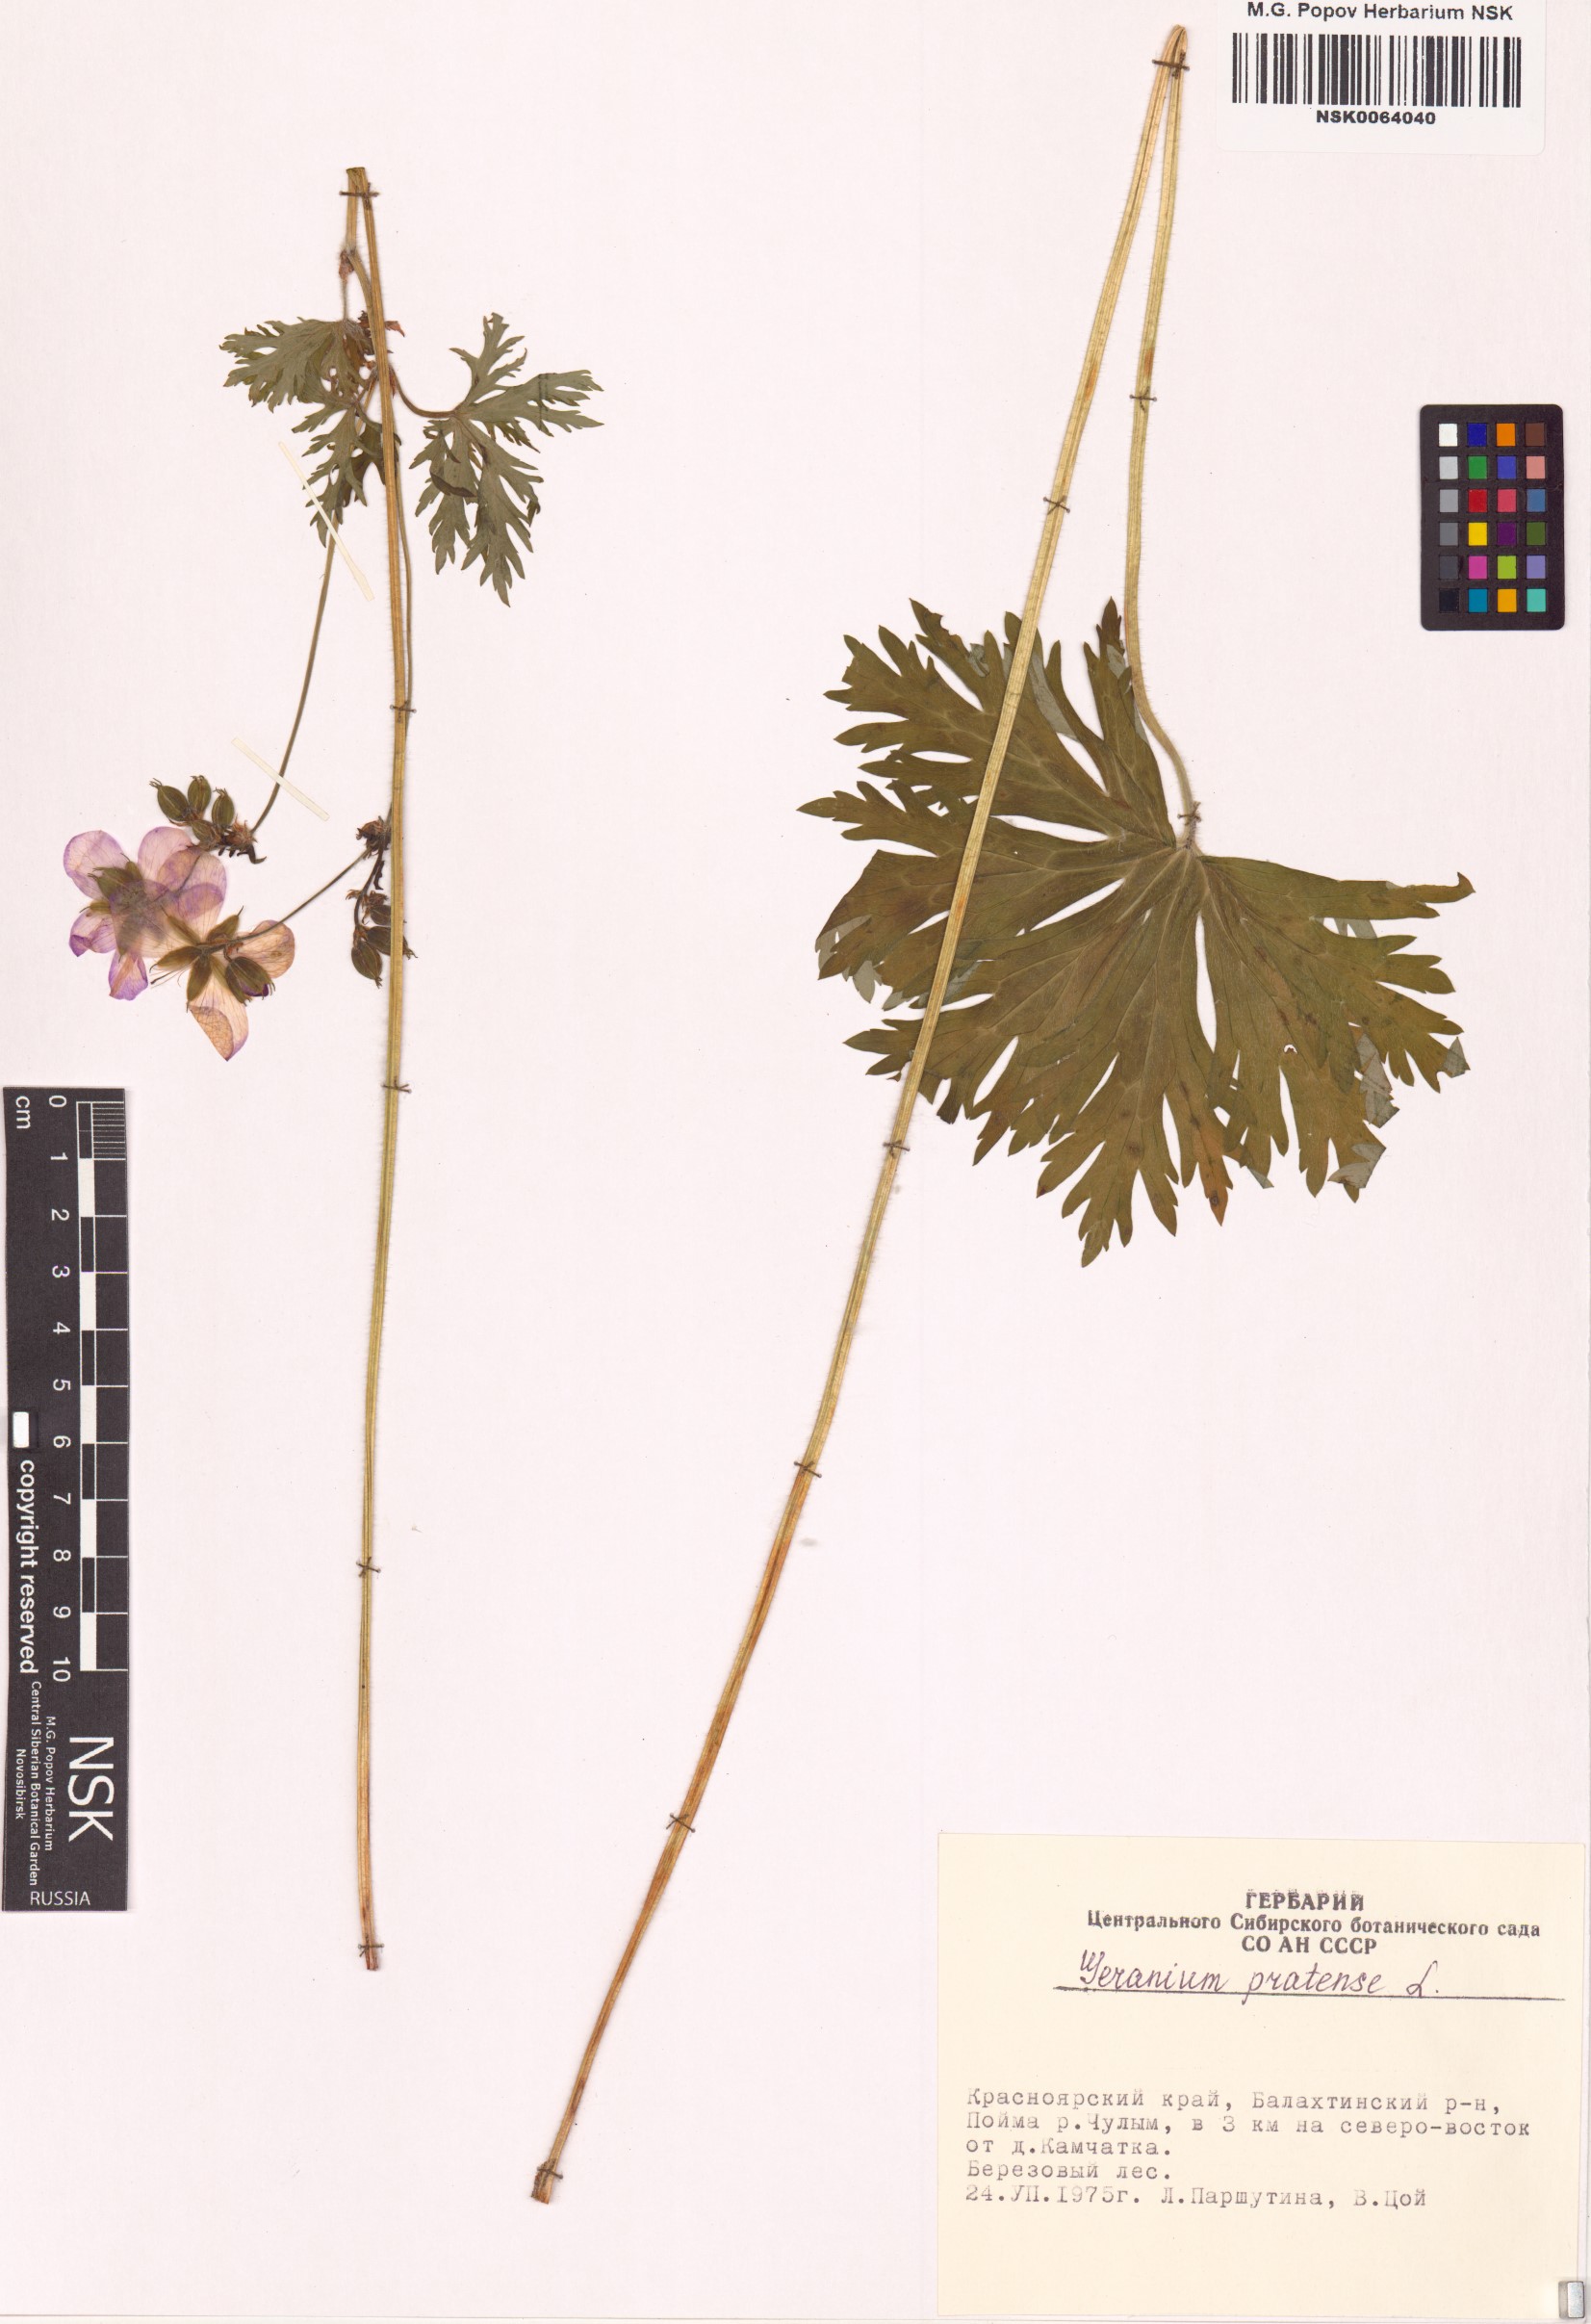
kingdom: Plantae
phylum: Tracheophyta
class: Magnoliopsida
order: Geraniales
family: Geraniaceae
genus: Geranium
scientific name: Geranium pratense
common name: Meadow crane's-bill
